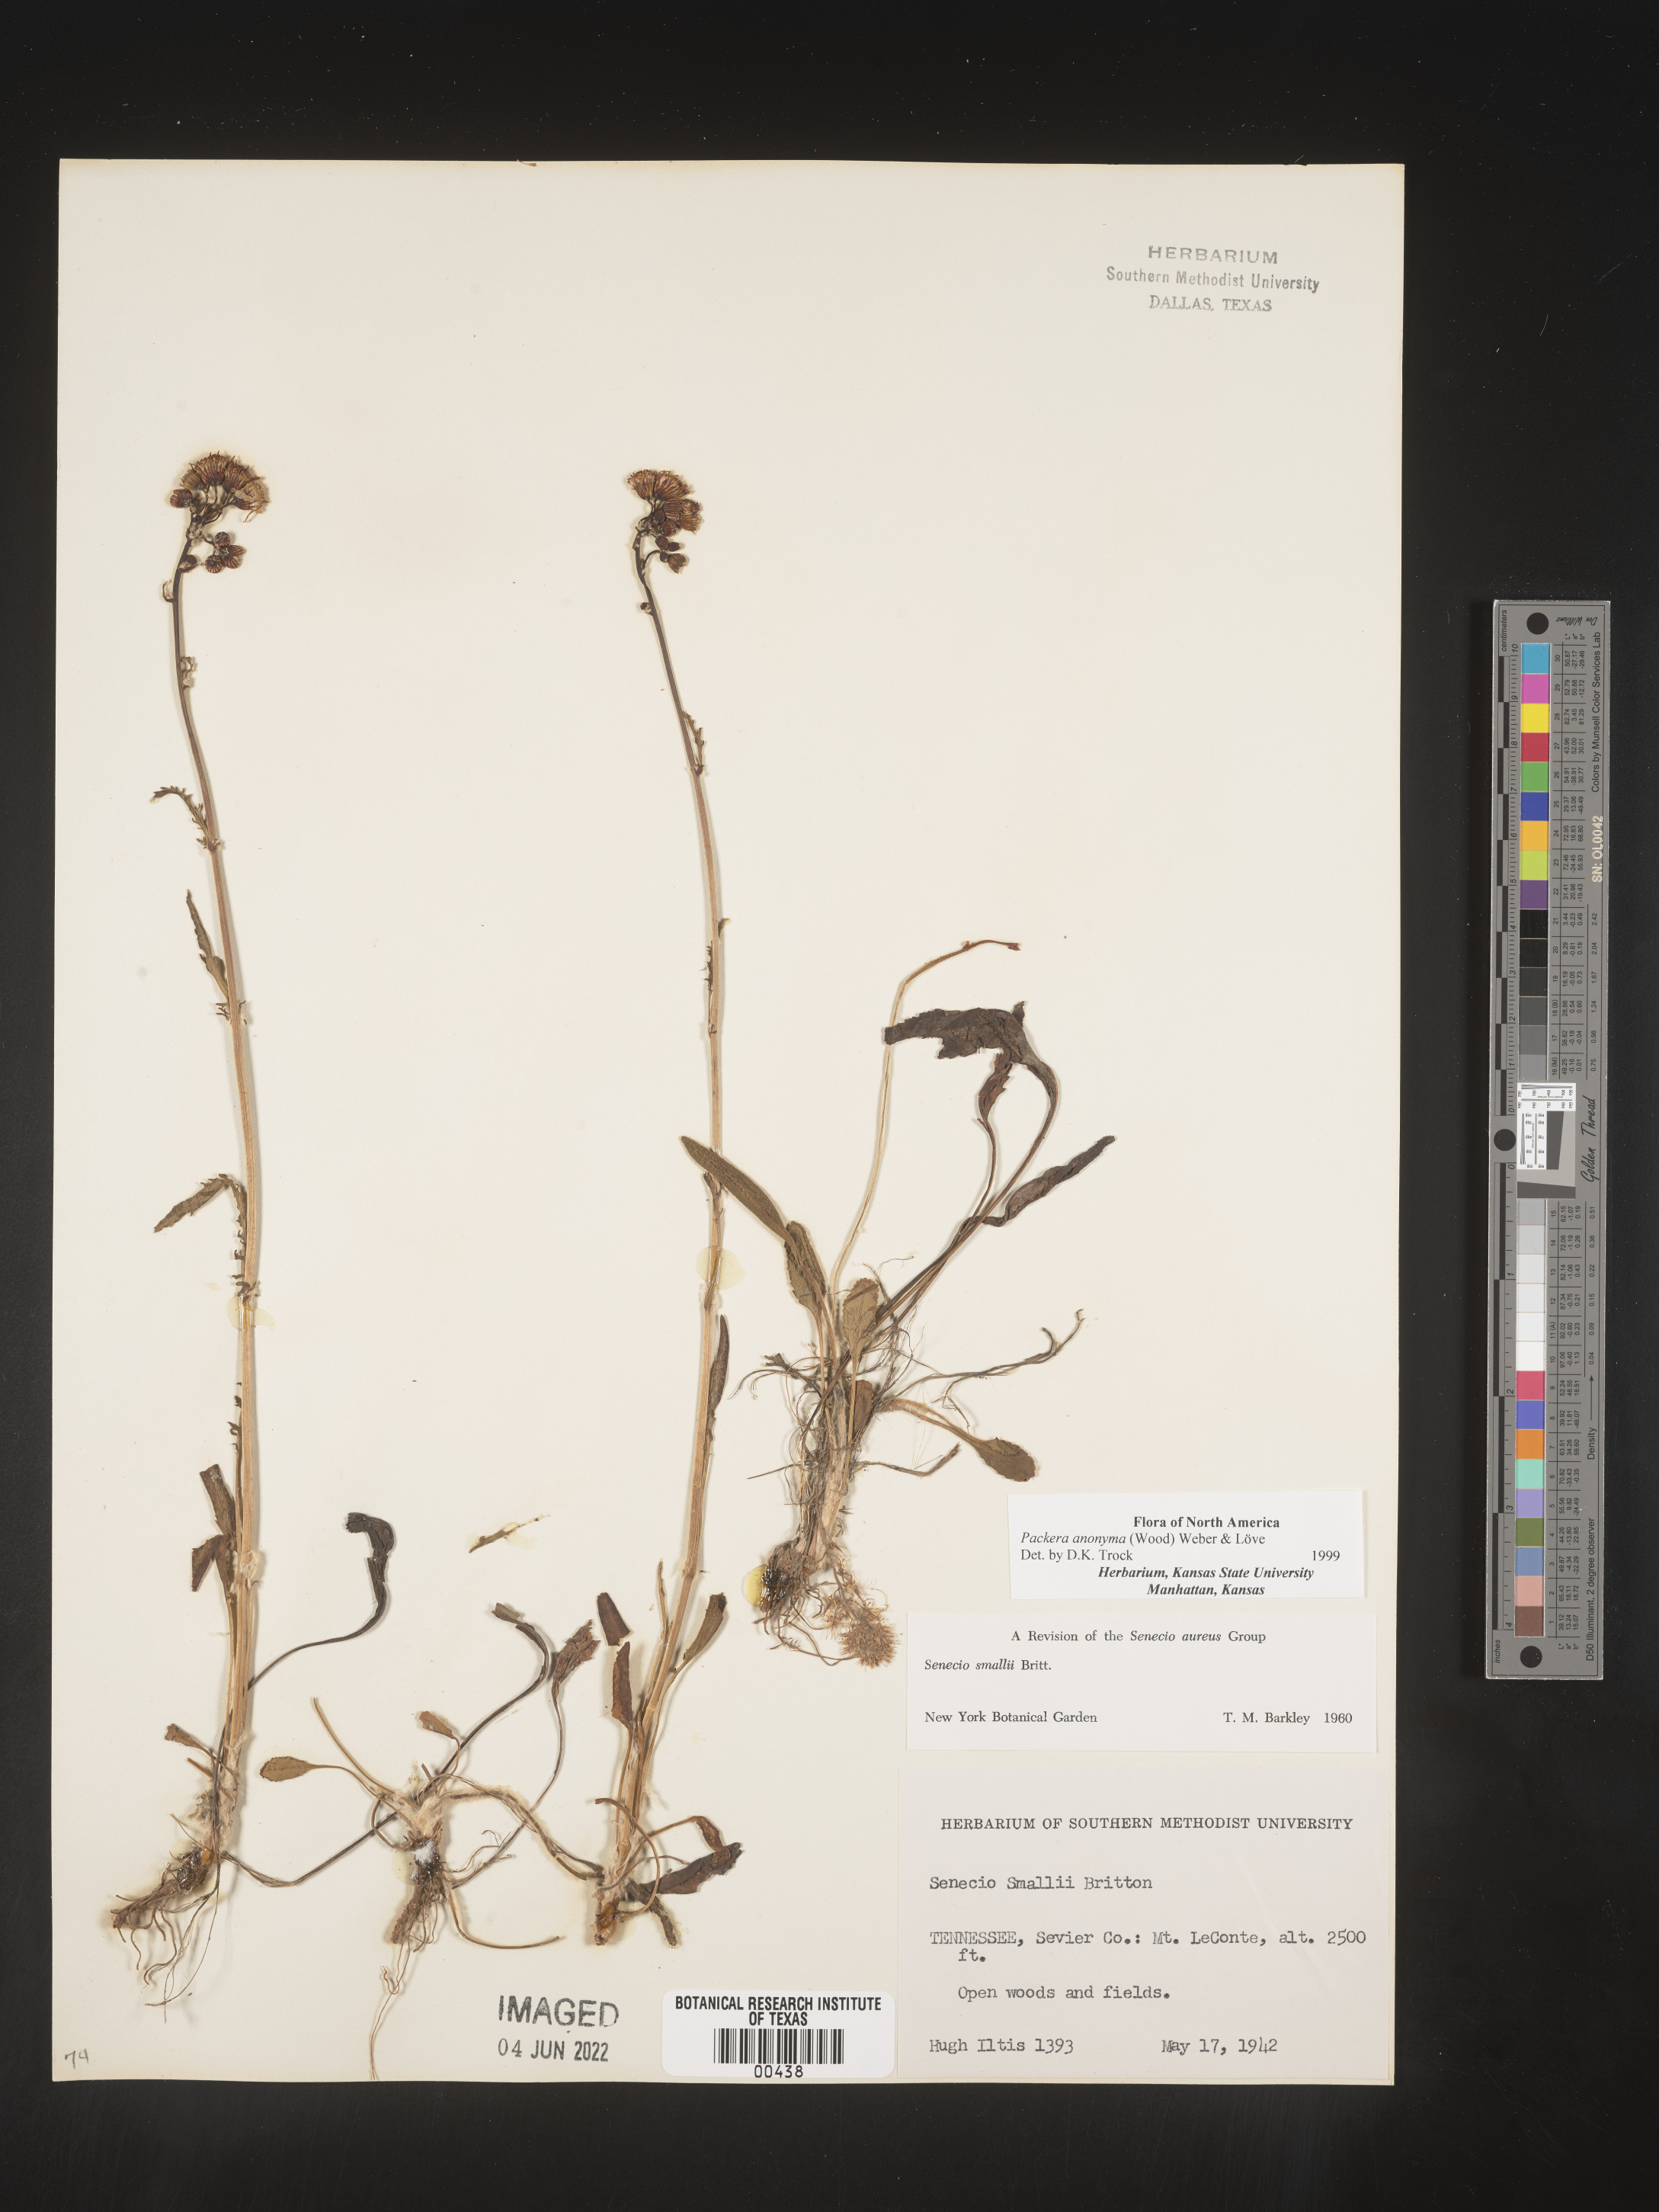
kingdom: Plantae
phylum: Tracheophyta
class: Magnoliopsida
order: Asterales
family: Asteraceae
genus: Packera
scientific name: Packera anonyma
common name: Small ragwort
